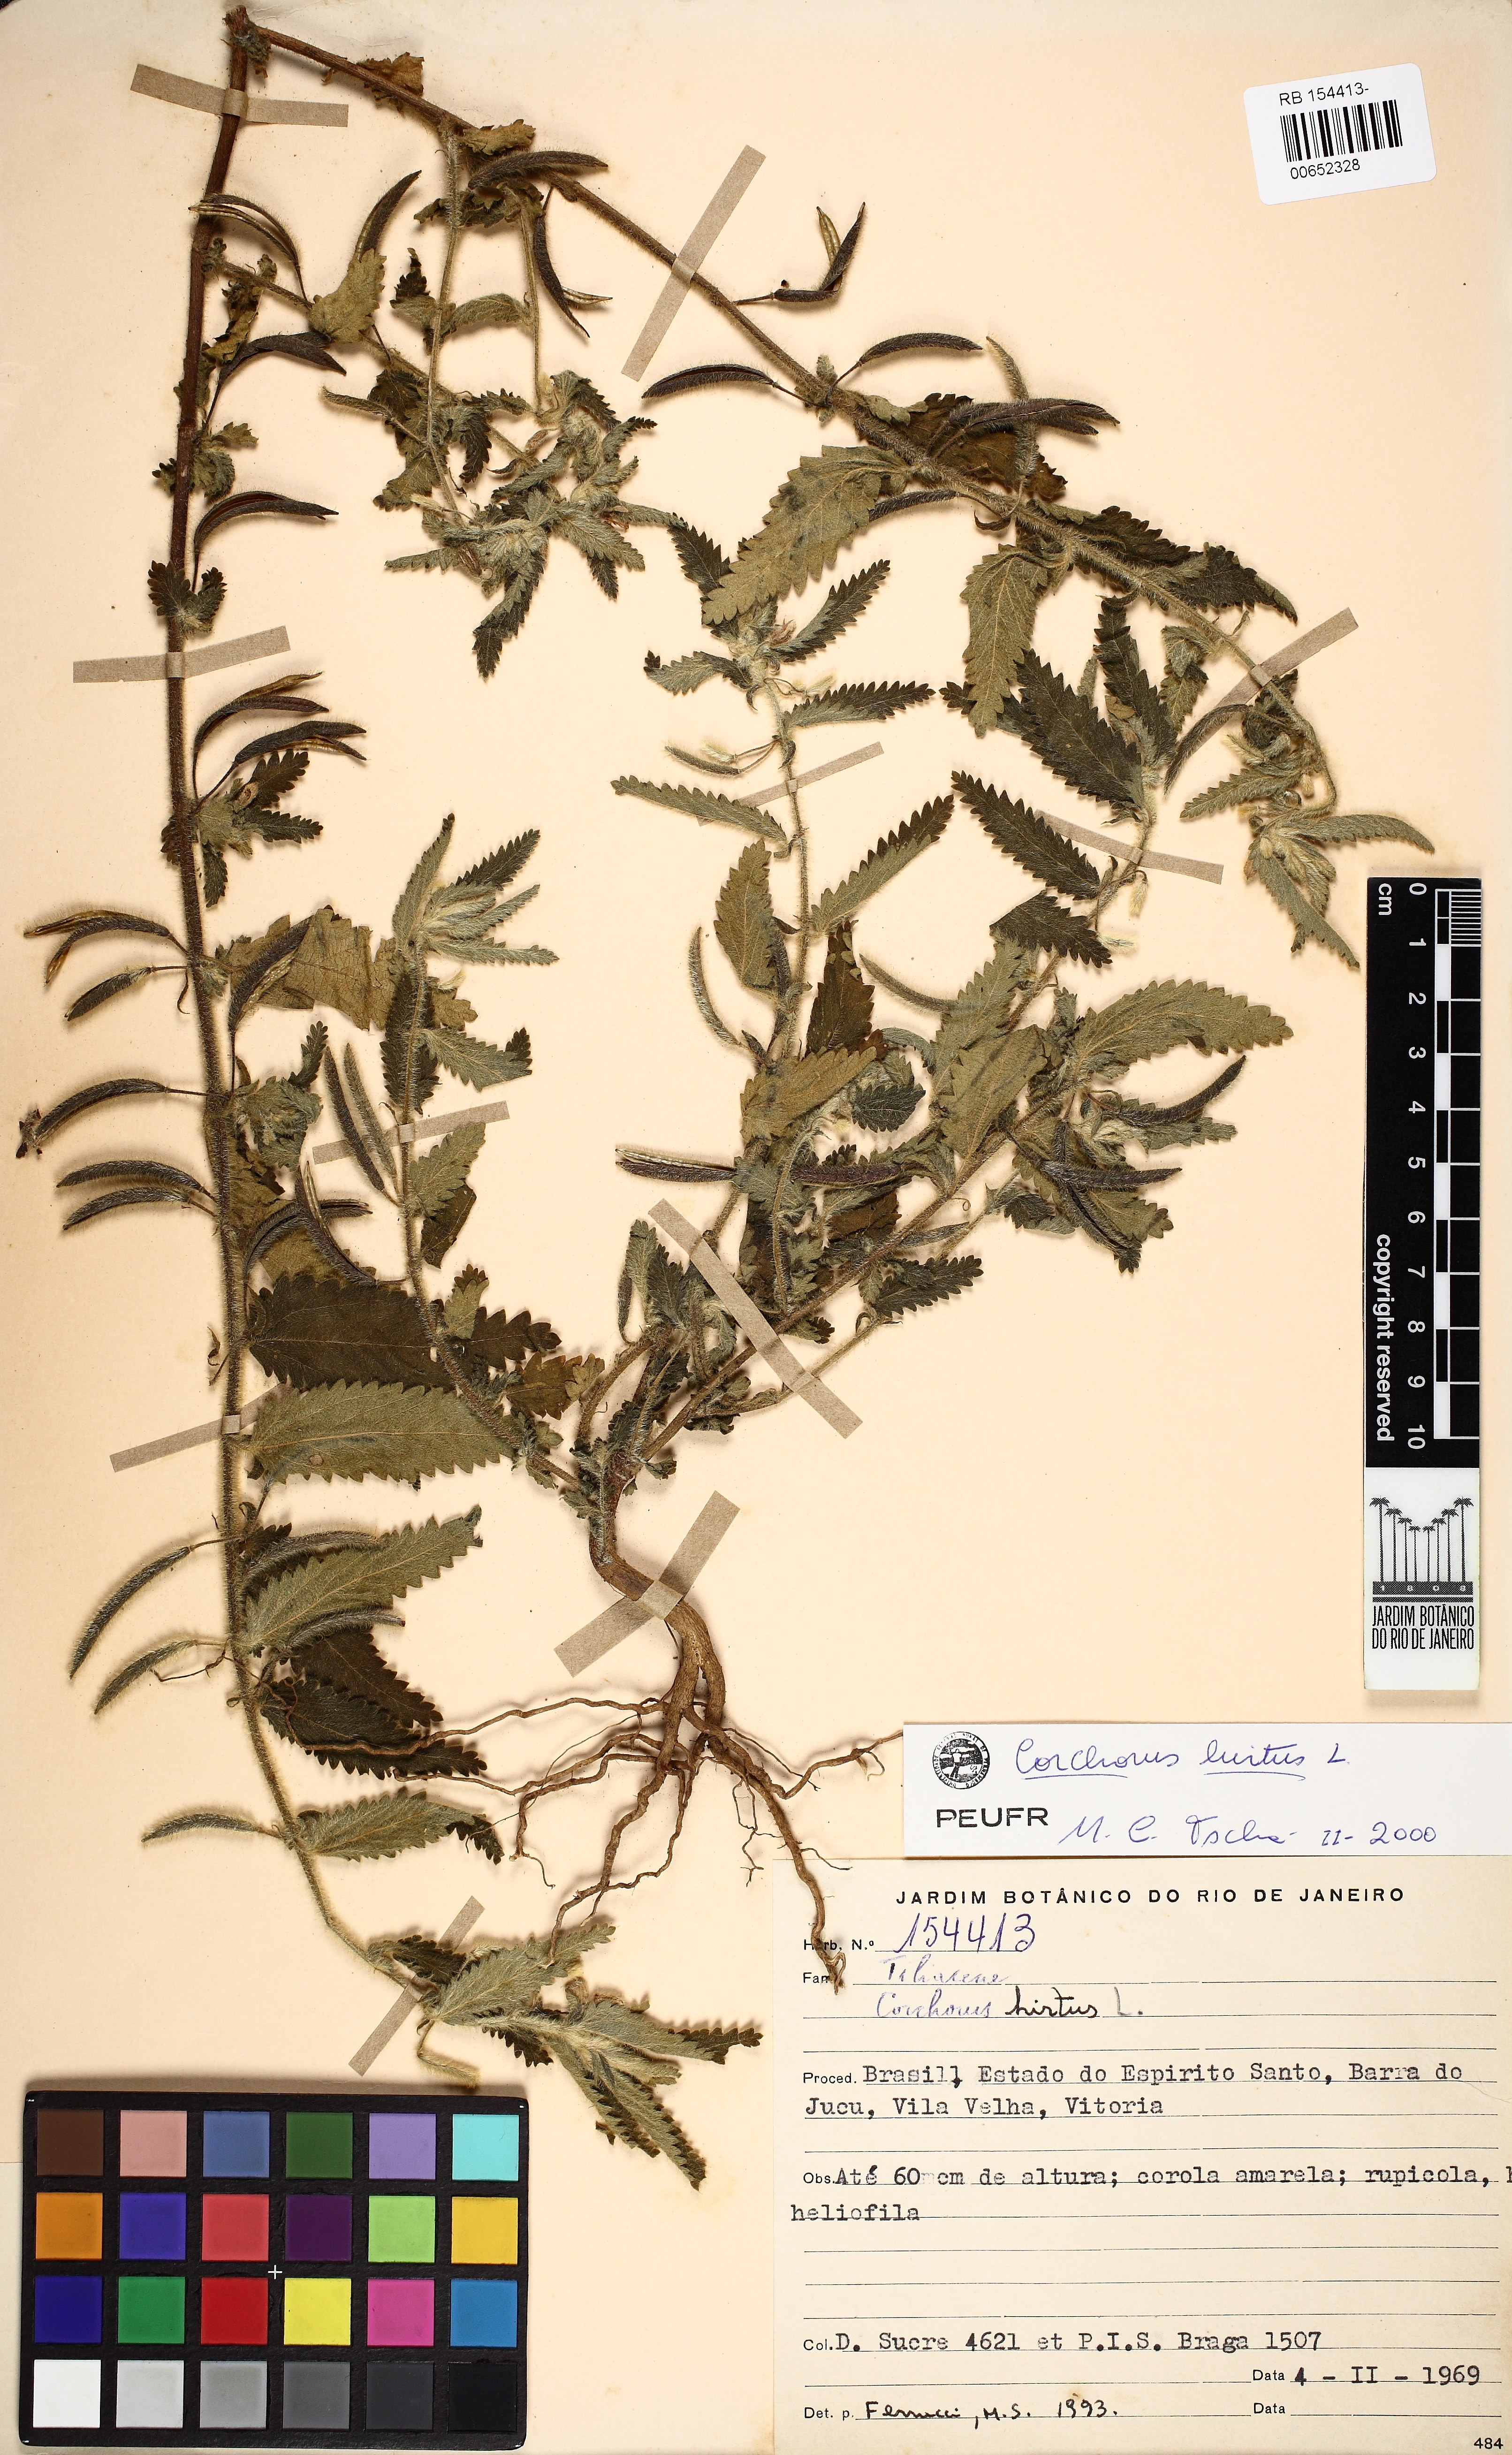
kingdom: Plantae
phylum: Tracheophyta
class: Magnoliopsida
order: Malvales
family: Malvaceae
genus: Corchorus
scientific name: Corchorus hirtus
